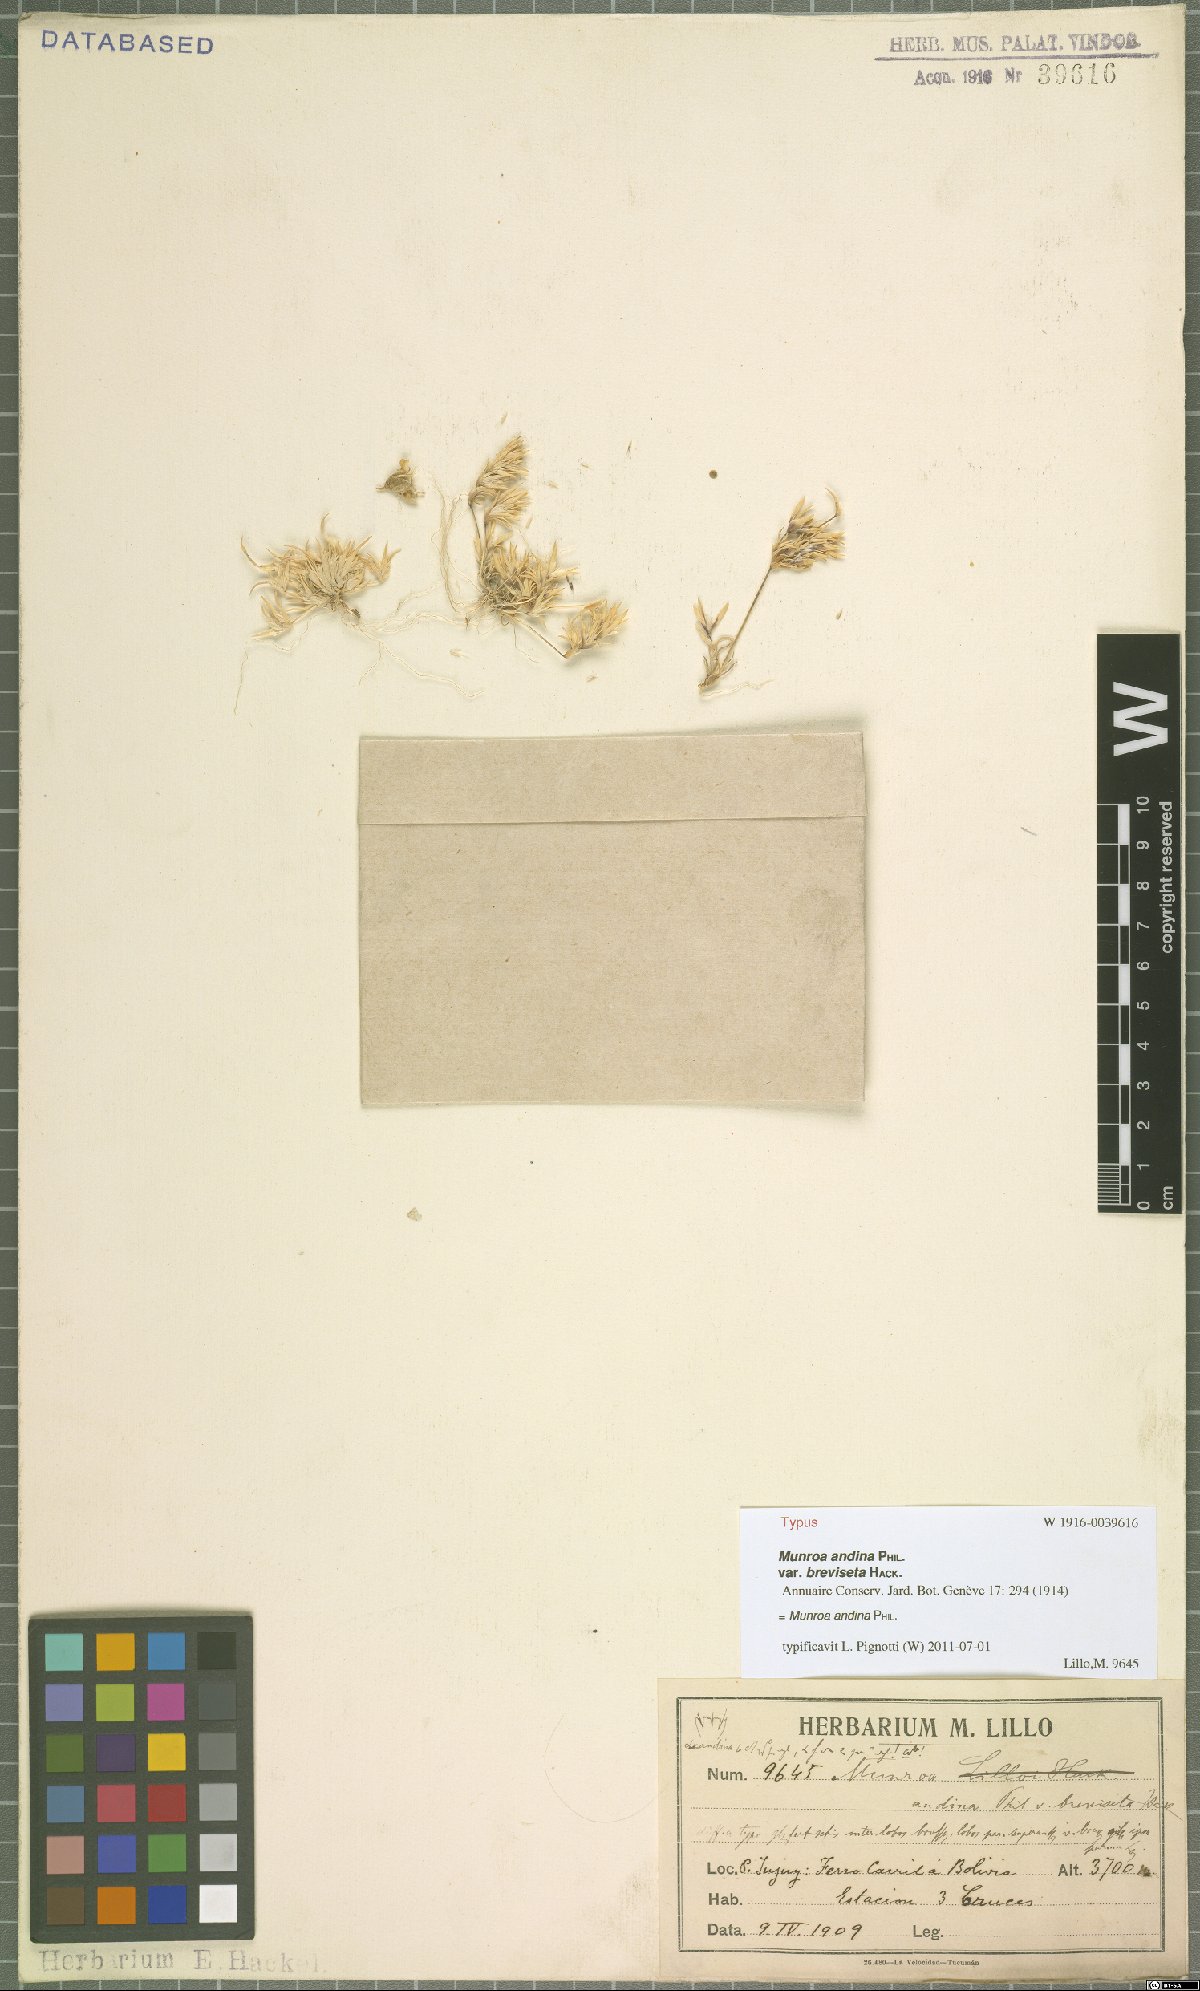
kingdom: Plantae
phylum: Tracheophyta
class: Liliopsida
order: Poales
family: Poaceae
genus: Munroa
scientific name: Munroa andina
